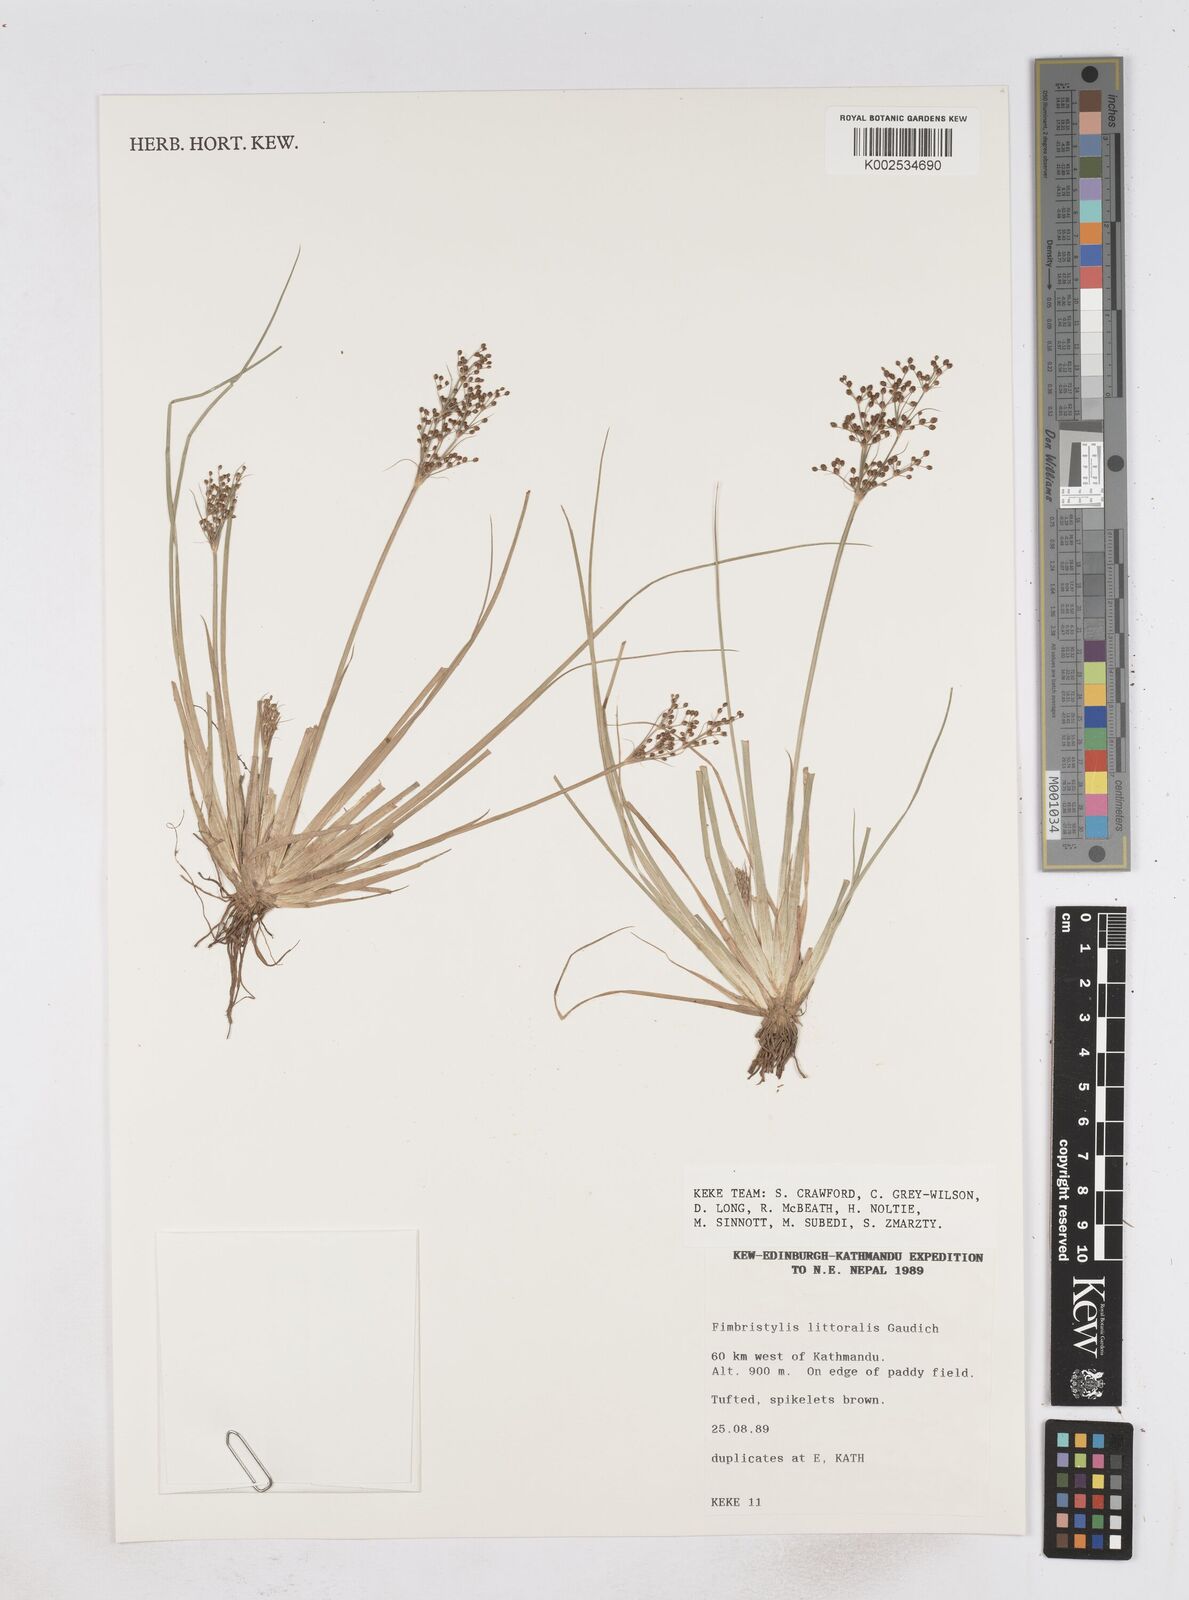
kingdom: Plantae
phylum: Tracheophyta
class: Liliopsida
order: Poales
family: Cyperaceae
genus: Fimbristylis
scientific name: Fimbristylis littoralis
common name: Fimbry
